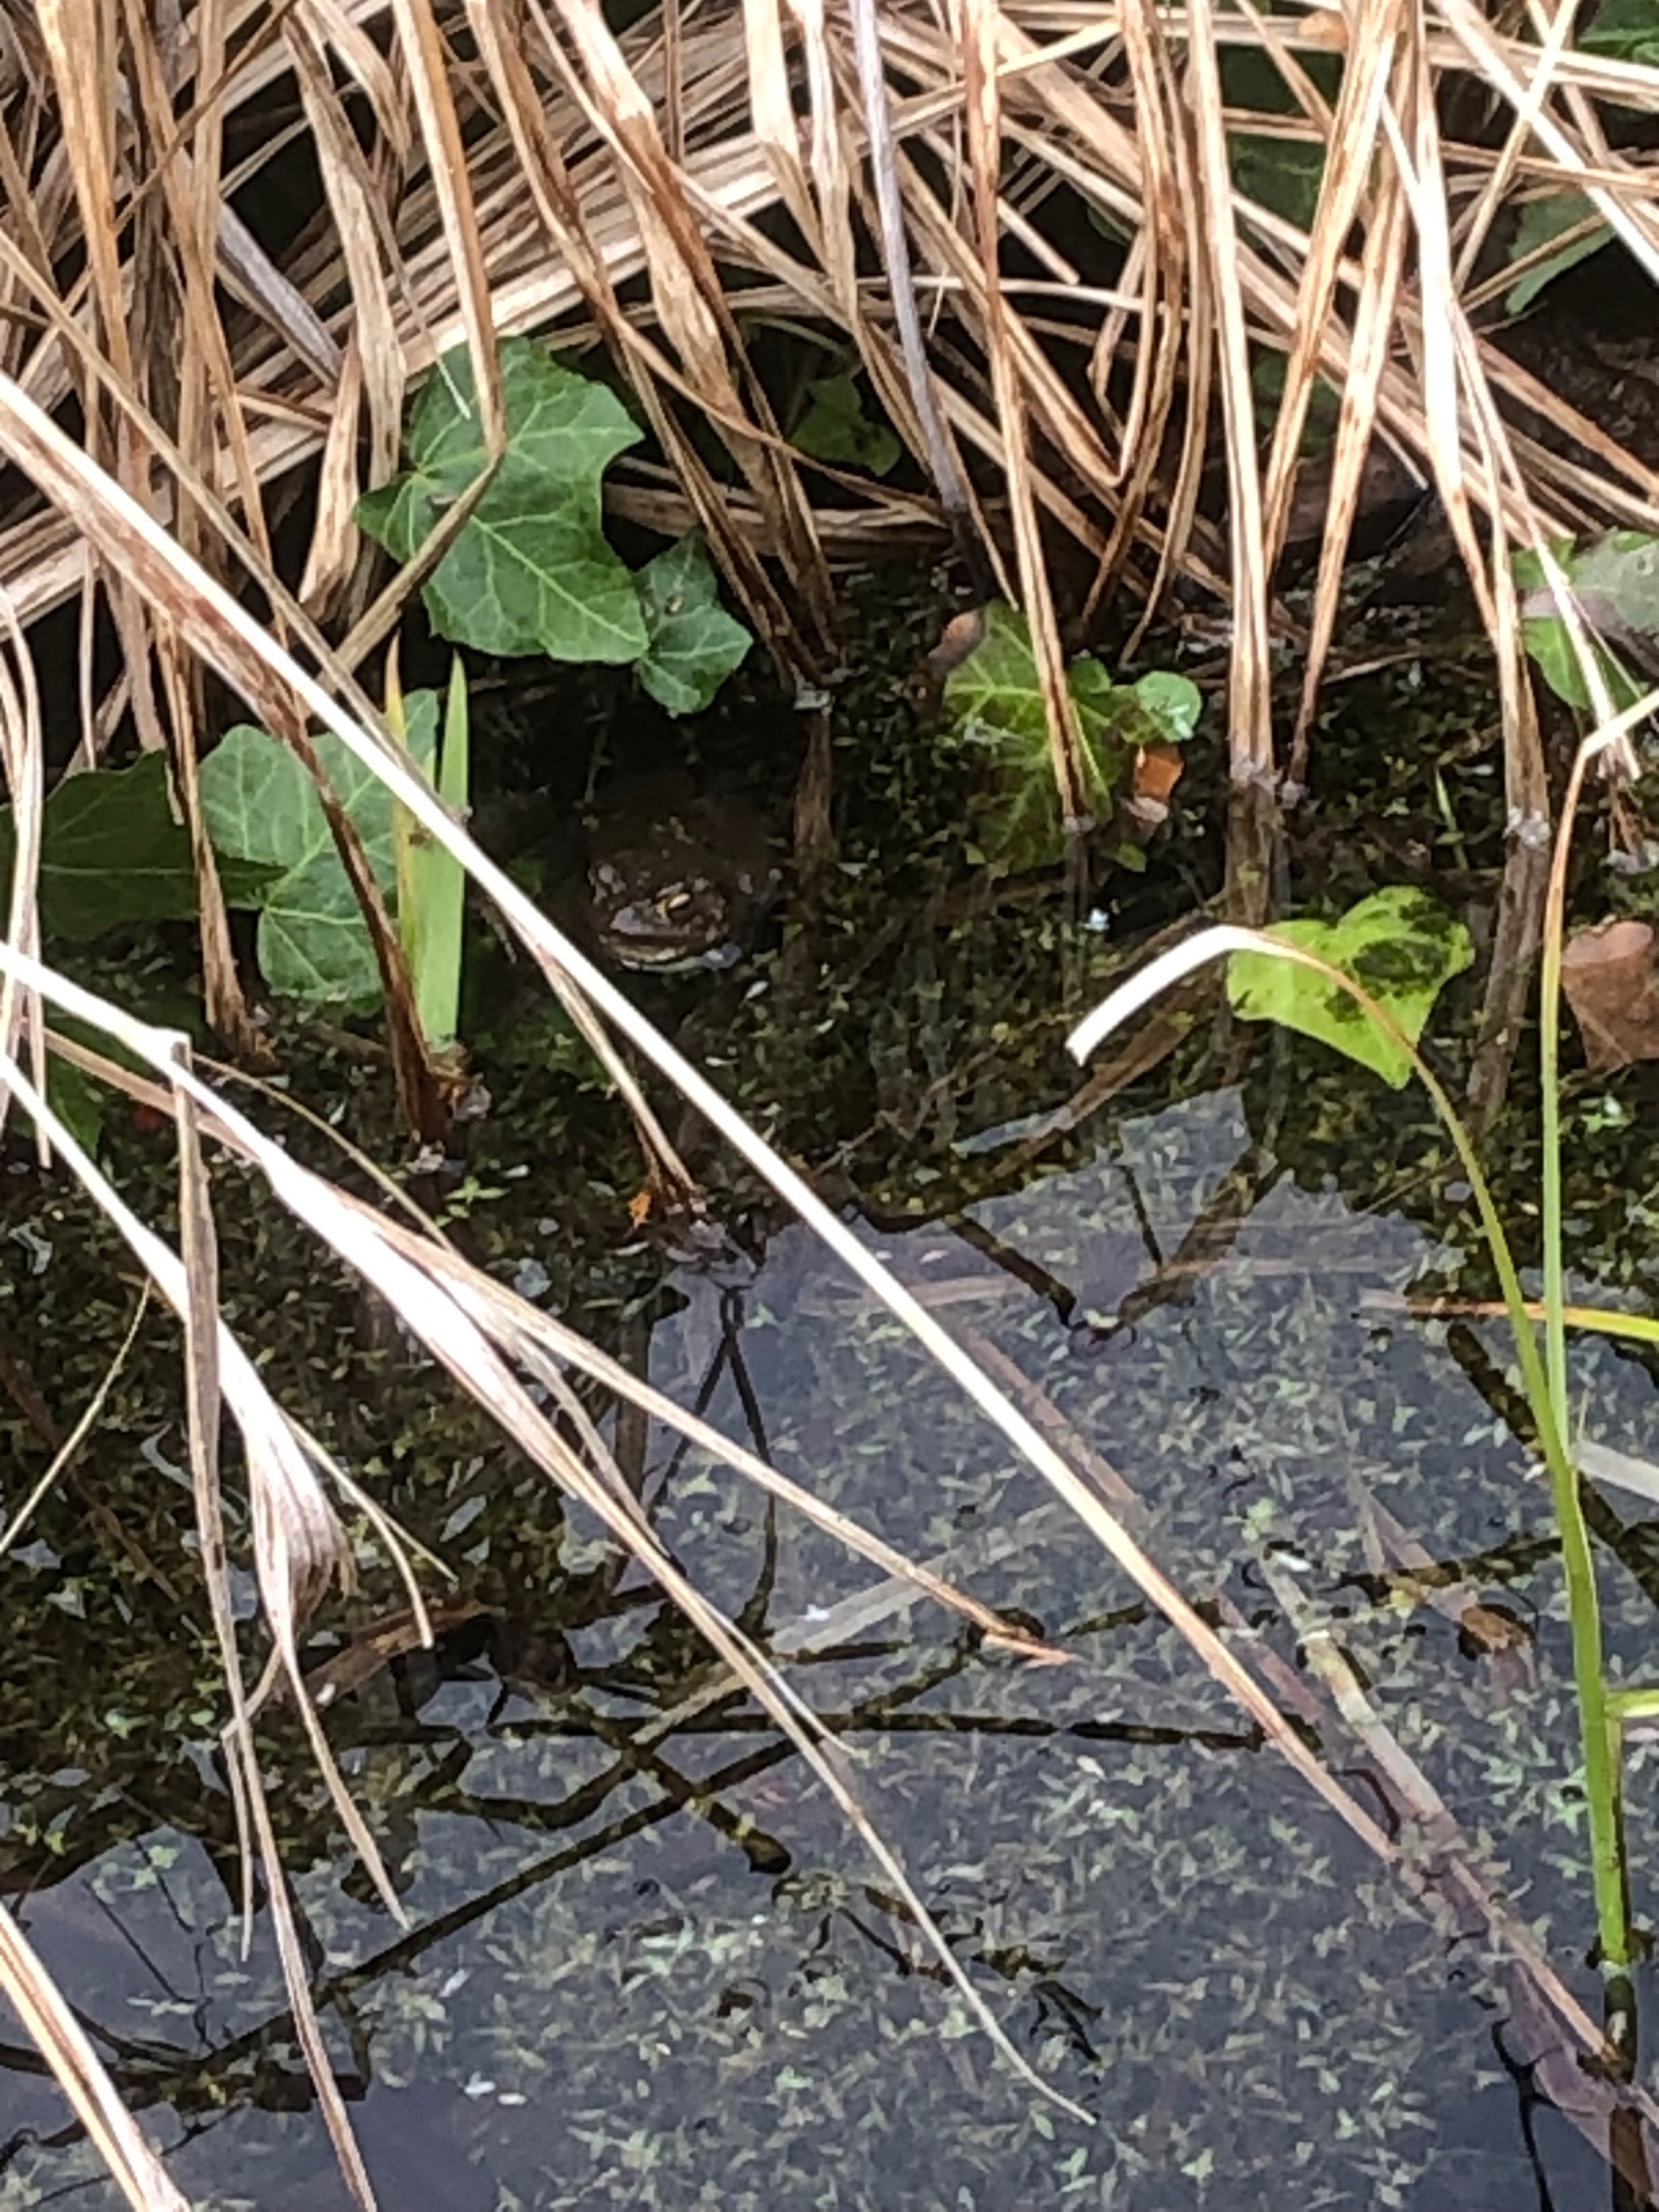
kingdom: Animalia
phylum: Chordata
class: Amphibia
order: Anura
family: Bufonidae
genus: Bufo
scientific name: Bufo bufo
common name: Skrubtudse
